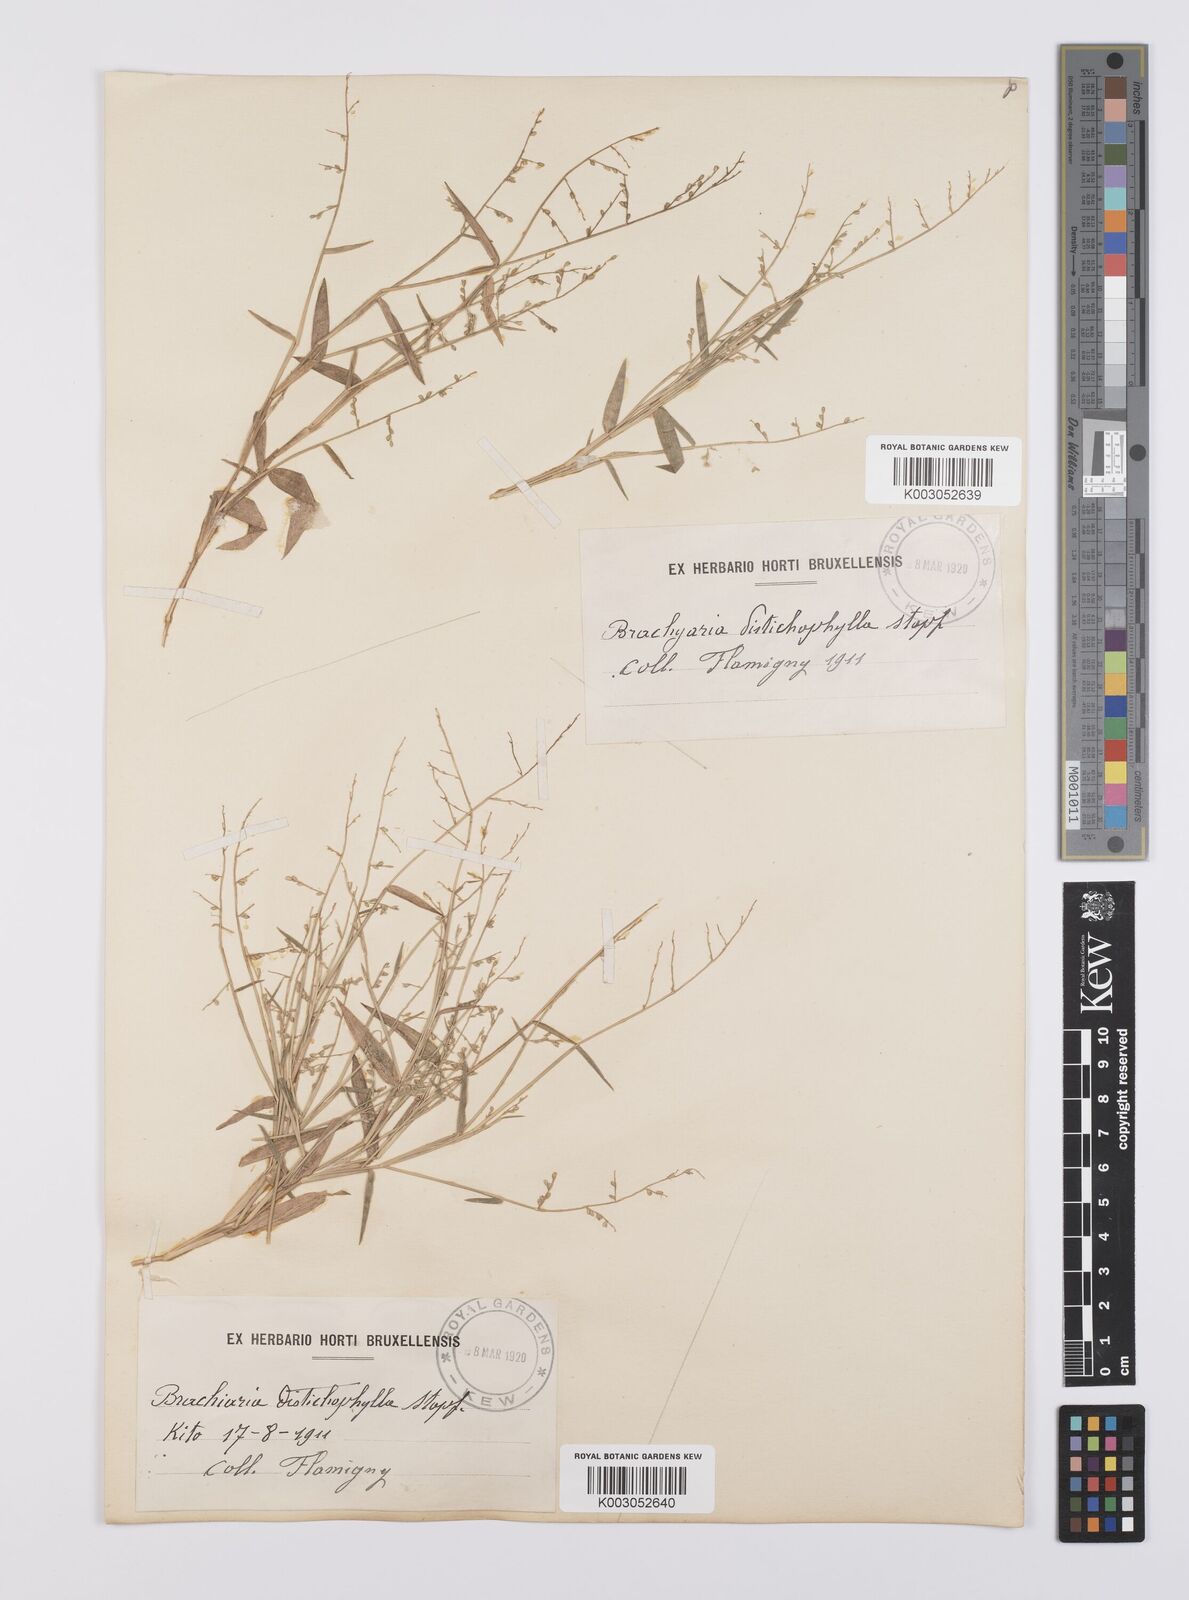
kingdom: Plantae
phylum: Tracheophyta
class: Liliopsida
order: Poales
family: Poaceae
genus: Urochloa
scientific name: Urochloa villosa
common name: Hairy signalgrass
